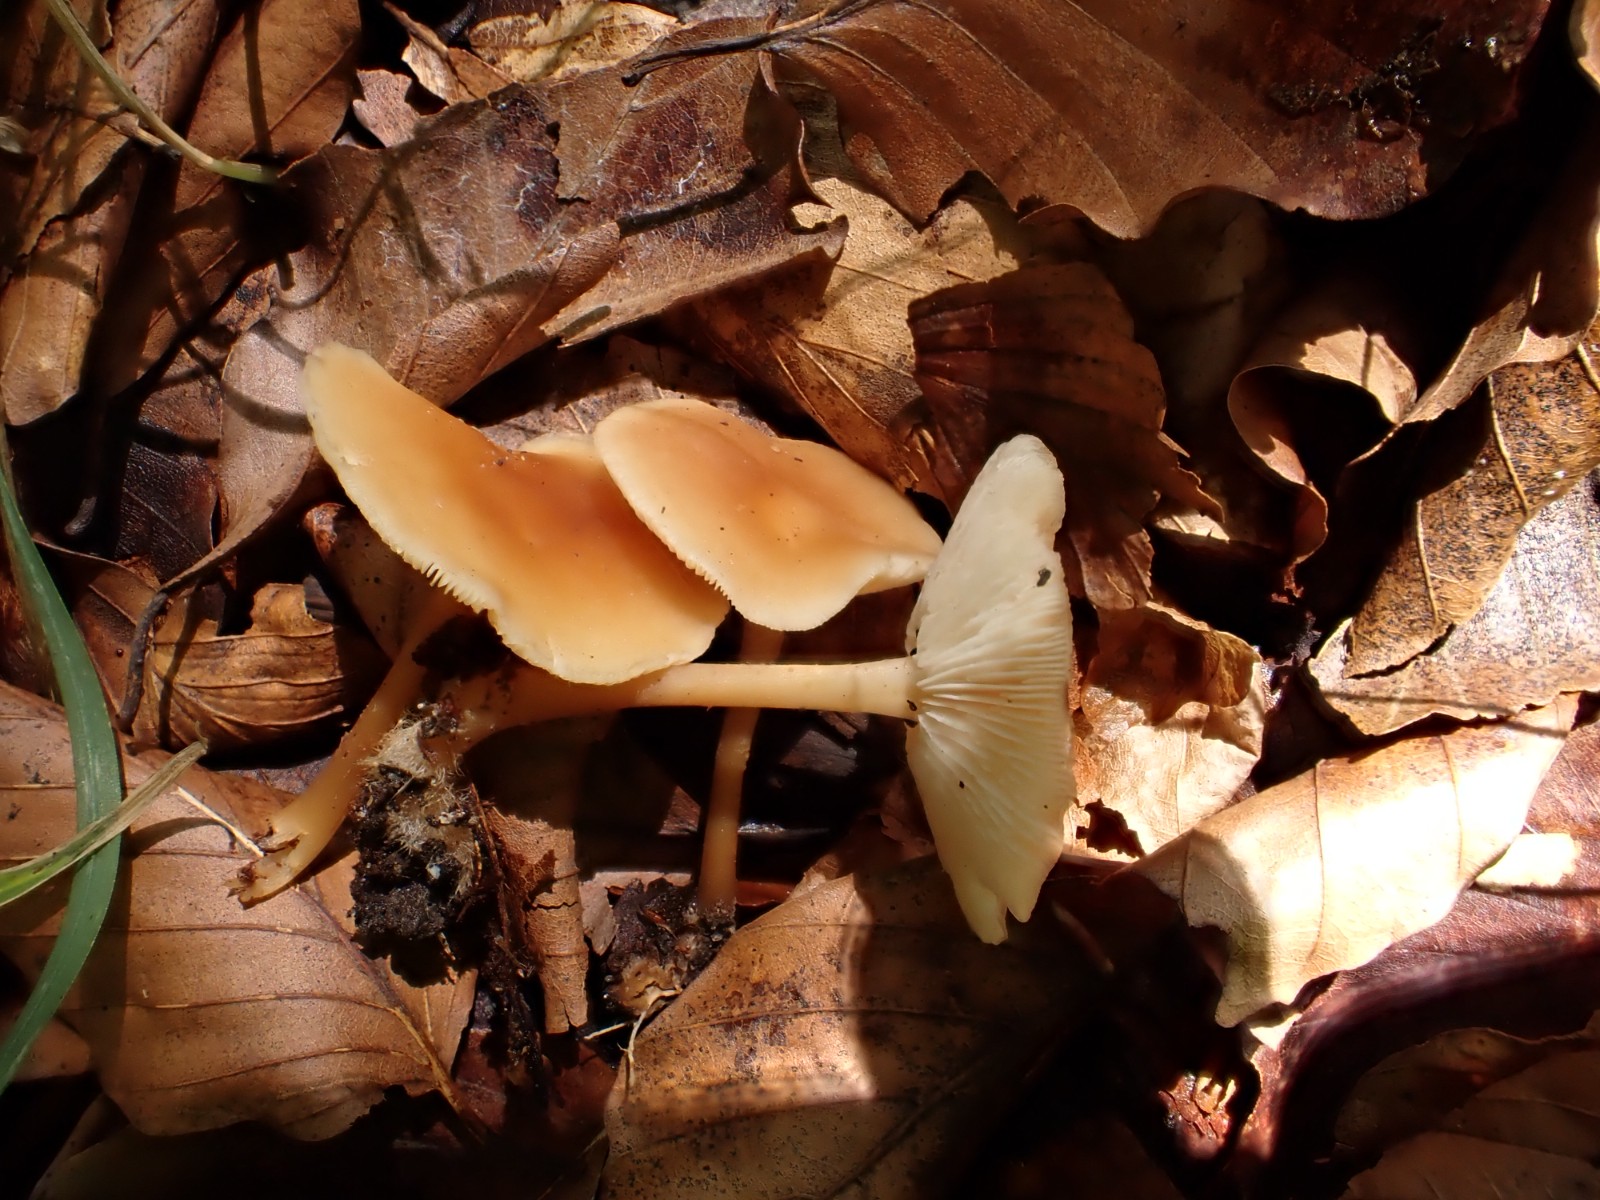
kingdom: Fungi
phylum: Basidiomycota
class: Agaricomycetes
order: Agaricales
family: Omphalotaceae
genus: Gymnopus
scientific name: Gymnopus dryophilus
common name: løv-fladhat
